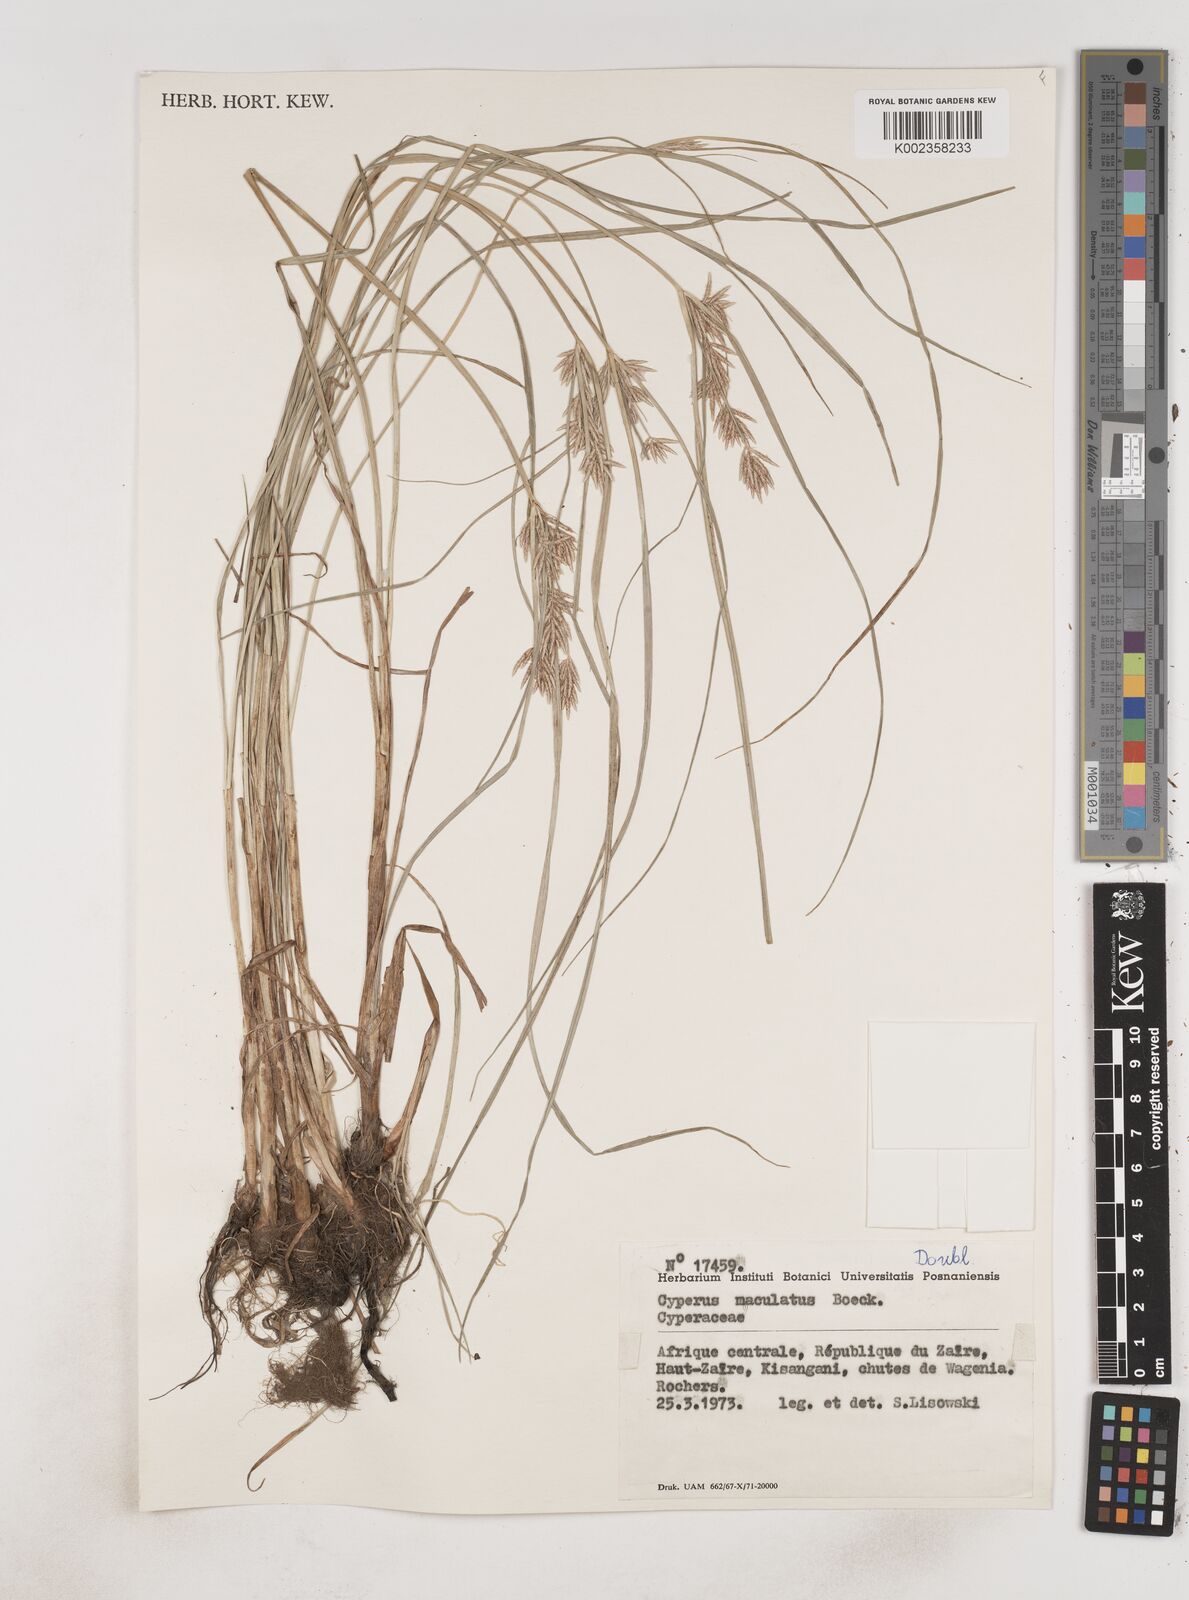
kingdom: Plantae
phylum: Tracheophyta
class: Liliopsida
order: Poales
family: Cyperaceae
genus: Cyperus
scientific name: Cyperus maculatus
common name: Maculated sedge
